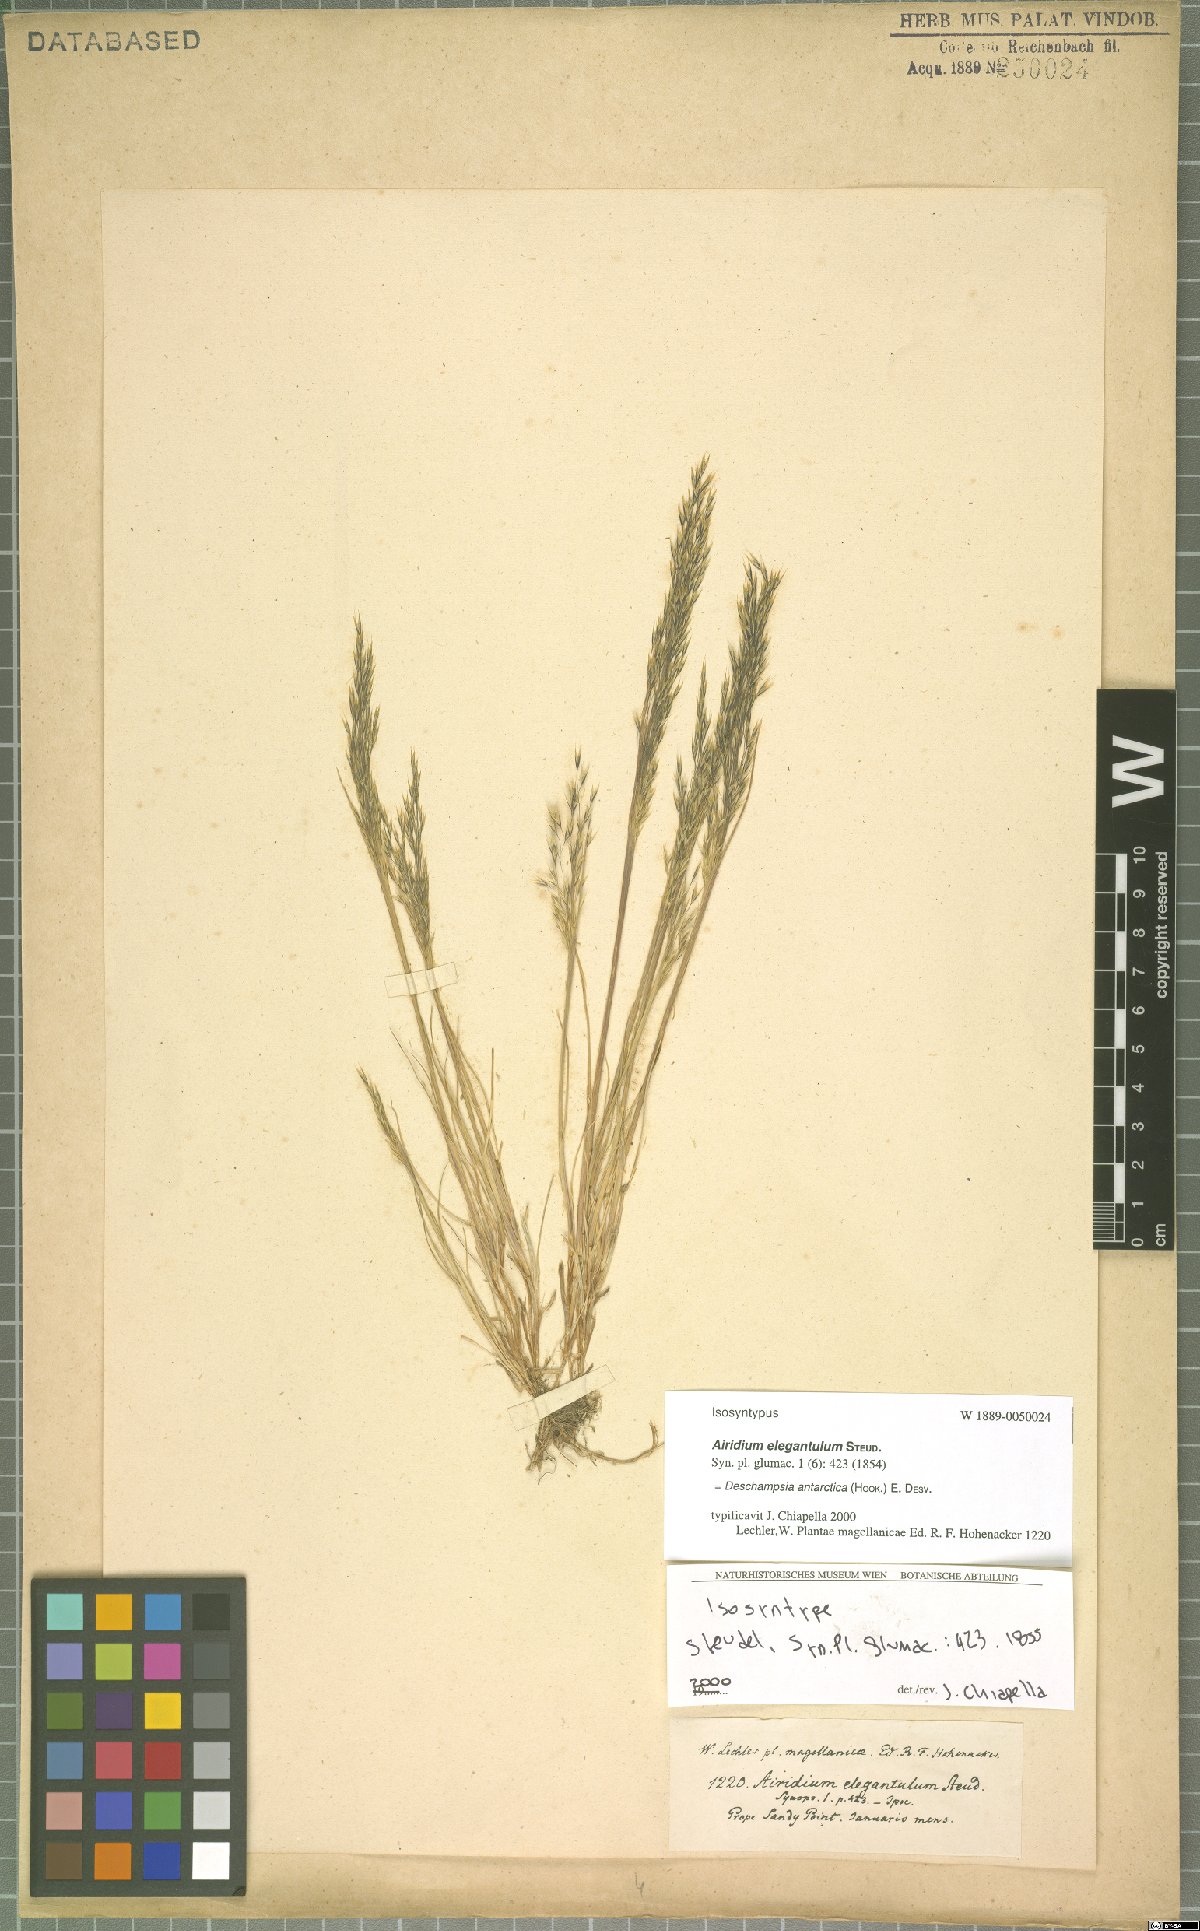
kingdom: Plantae
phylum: Tracheophyta
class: Liliopsida
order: Poales
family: Poaceae
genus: Deschampsia
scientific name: Deschampsia antarctica
